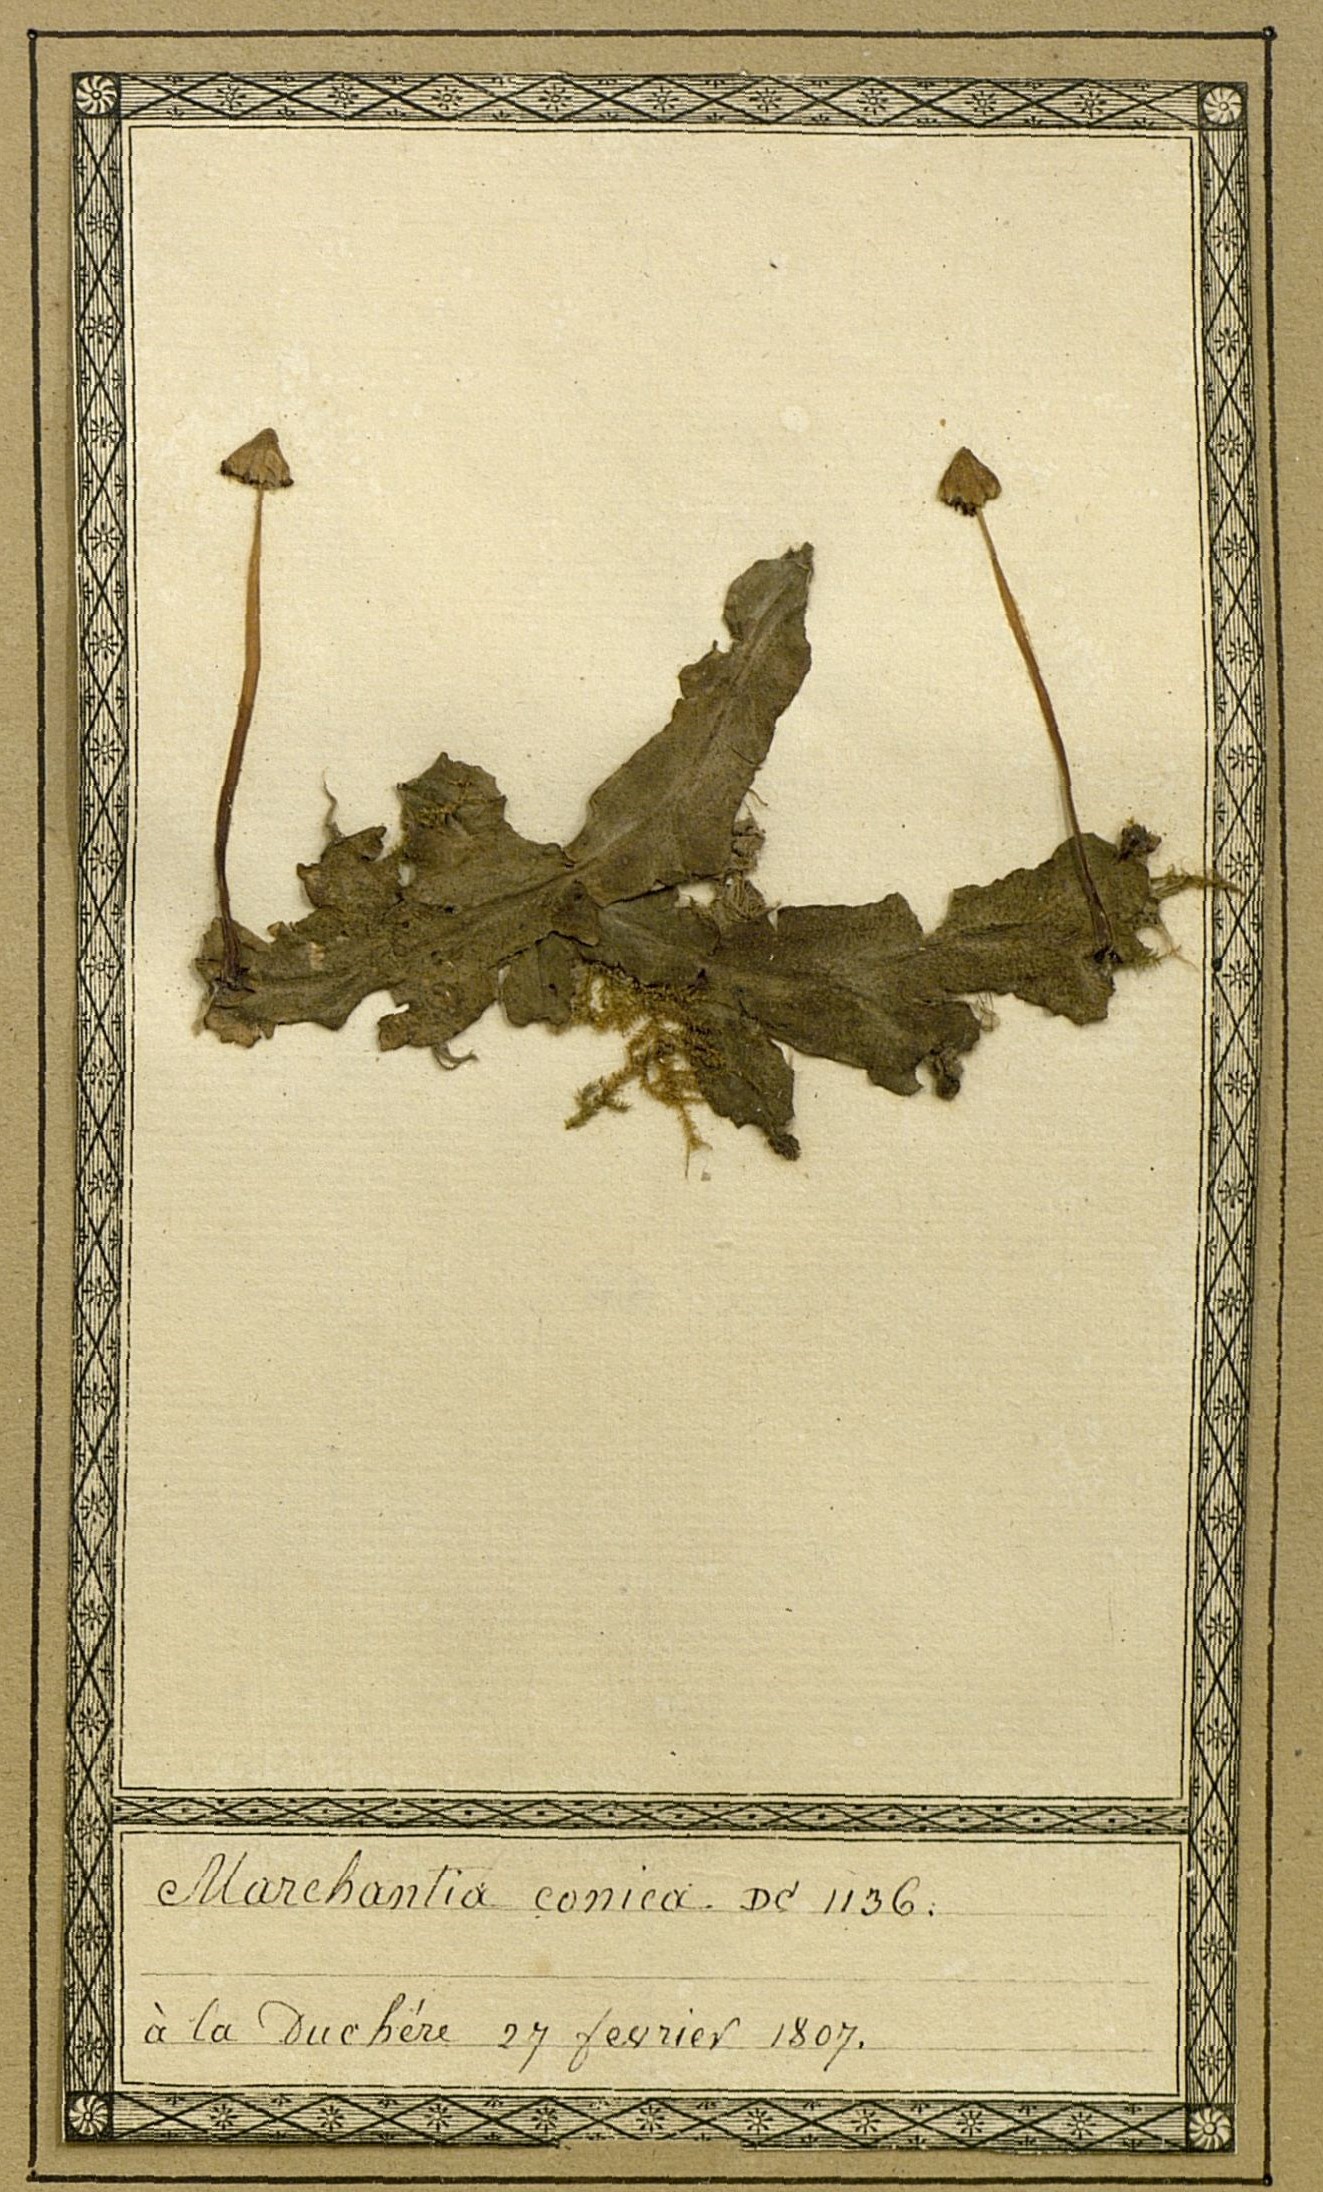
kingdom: Plantae
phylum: Marchantiophyta
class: Marchantiopsida
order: Marchantiales
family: Marchantiaceae
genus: Marchantia
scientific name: Marchantia confissa
